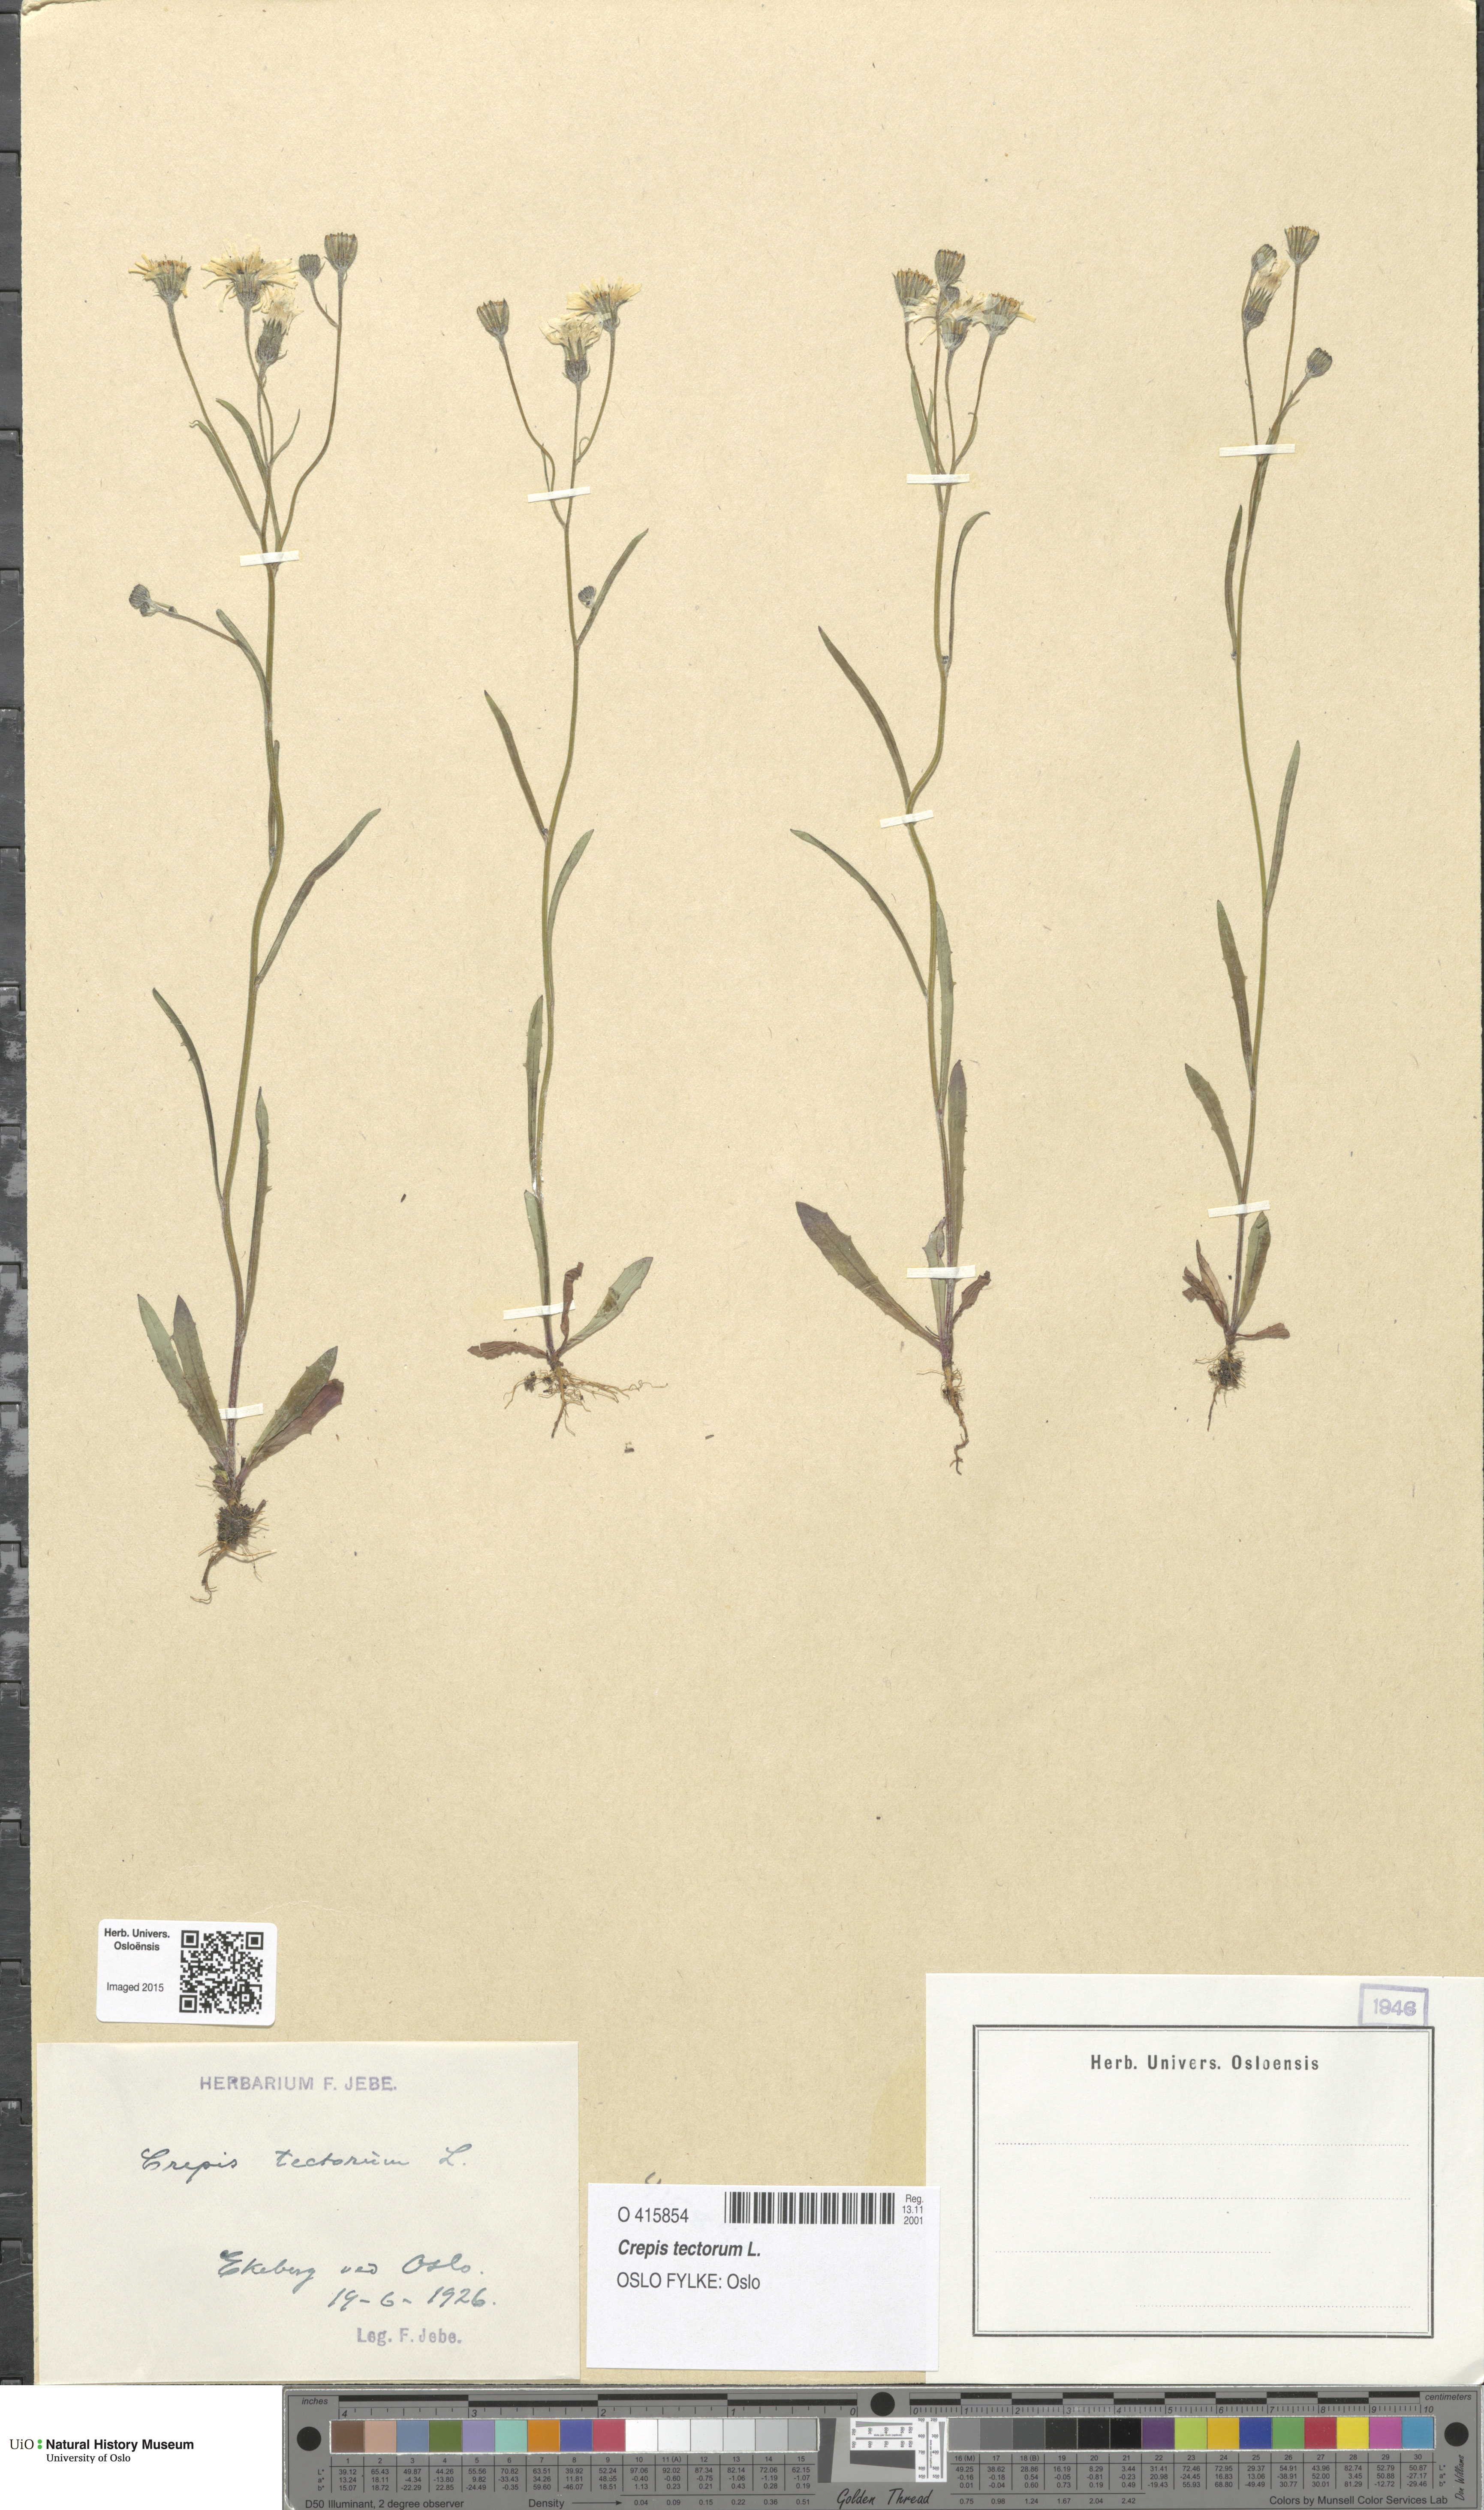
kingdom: Plantae
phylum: Tracheophyta
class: Magnoliopsida
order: Asterales
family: Asteraceae
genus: Crepis
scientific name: Crepis tectorum
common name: Narrow-leaved hawk's-beard
